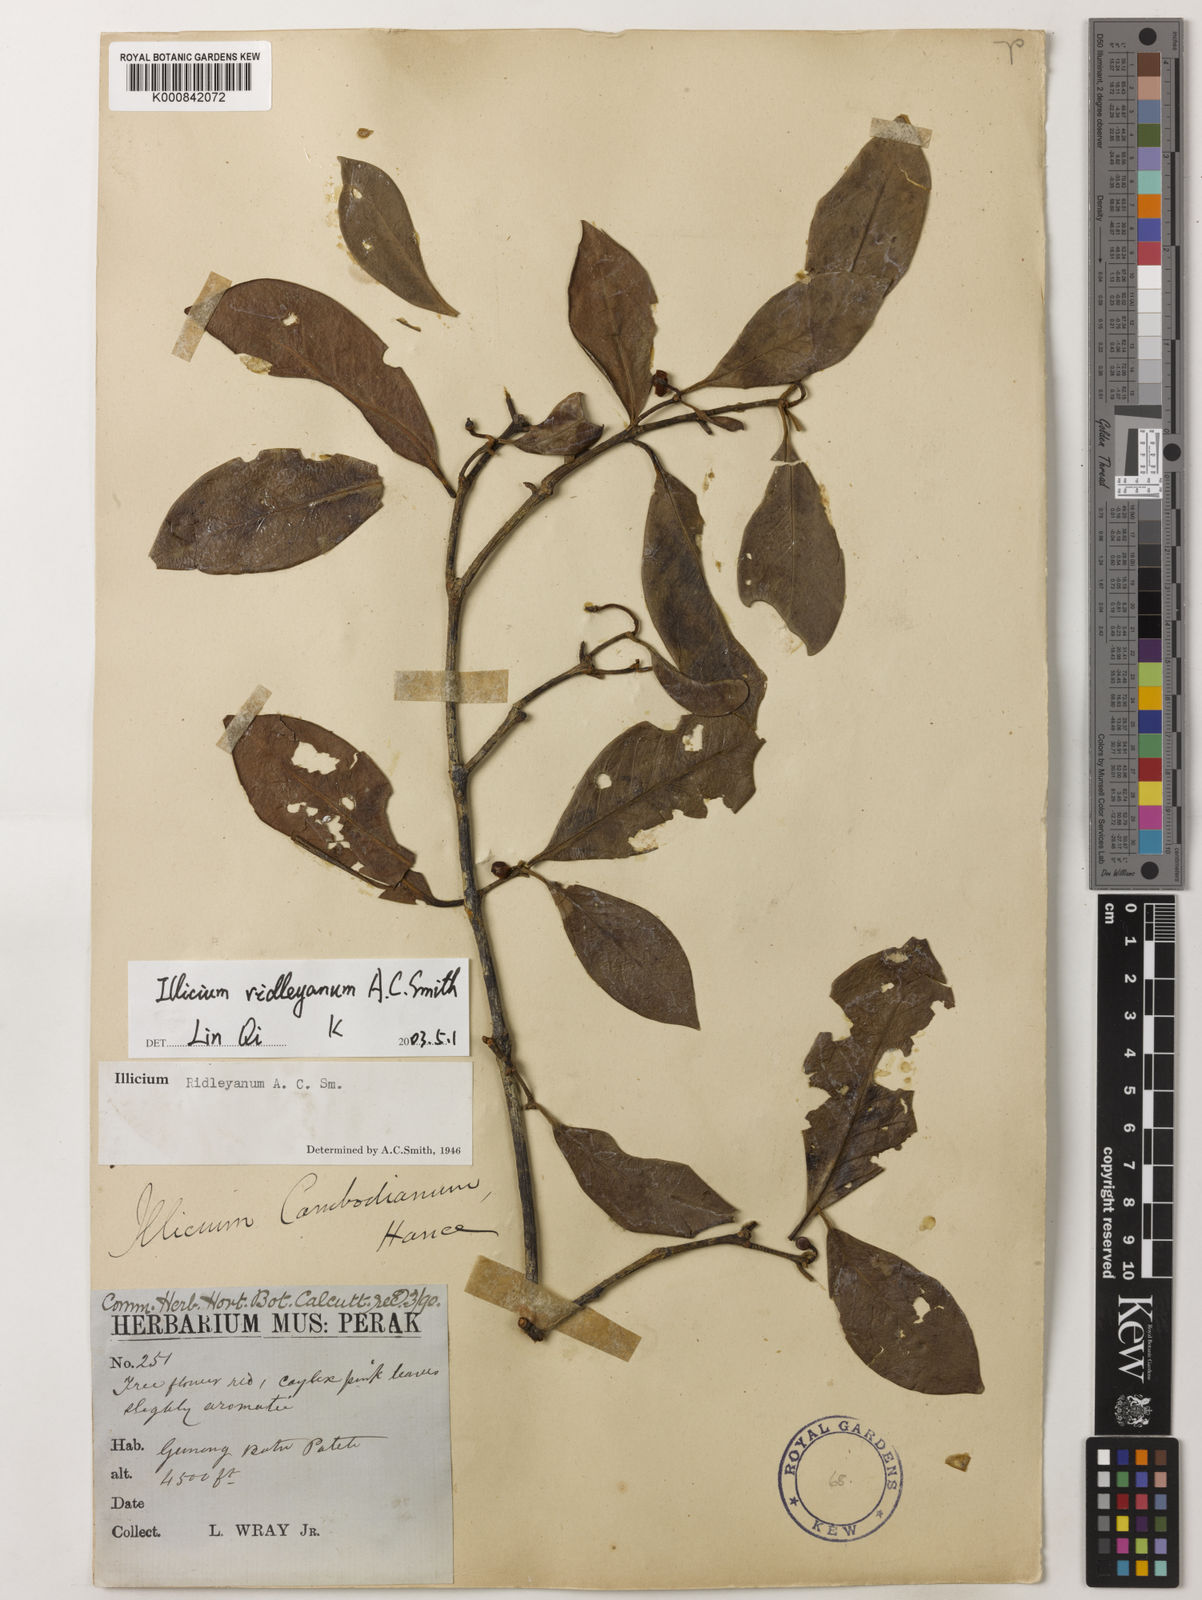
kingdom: Plantae
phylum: Tracheophyta
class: Magnoliopsida
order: Austrobaileyales
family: Schisandraceae
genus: Illicium
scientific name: Illicium ridleyanum
